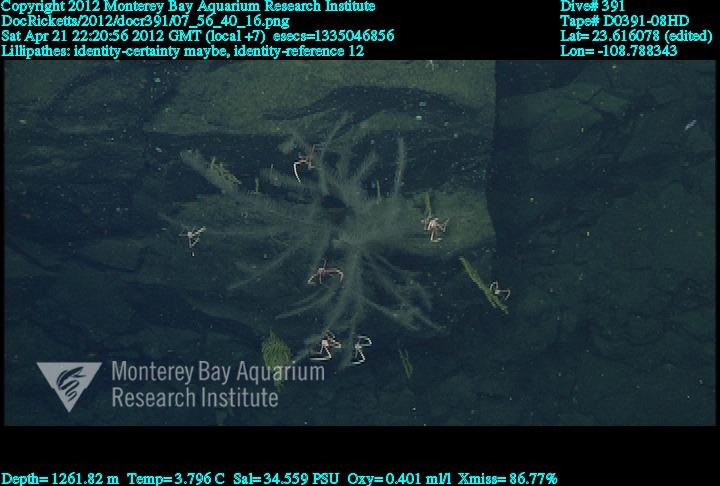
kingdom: Animalia
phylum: Cnidaria
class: Anthozoa
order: Antipatharia
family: Schizopathidae
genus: Lillipathes
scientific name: Lillipathes
